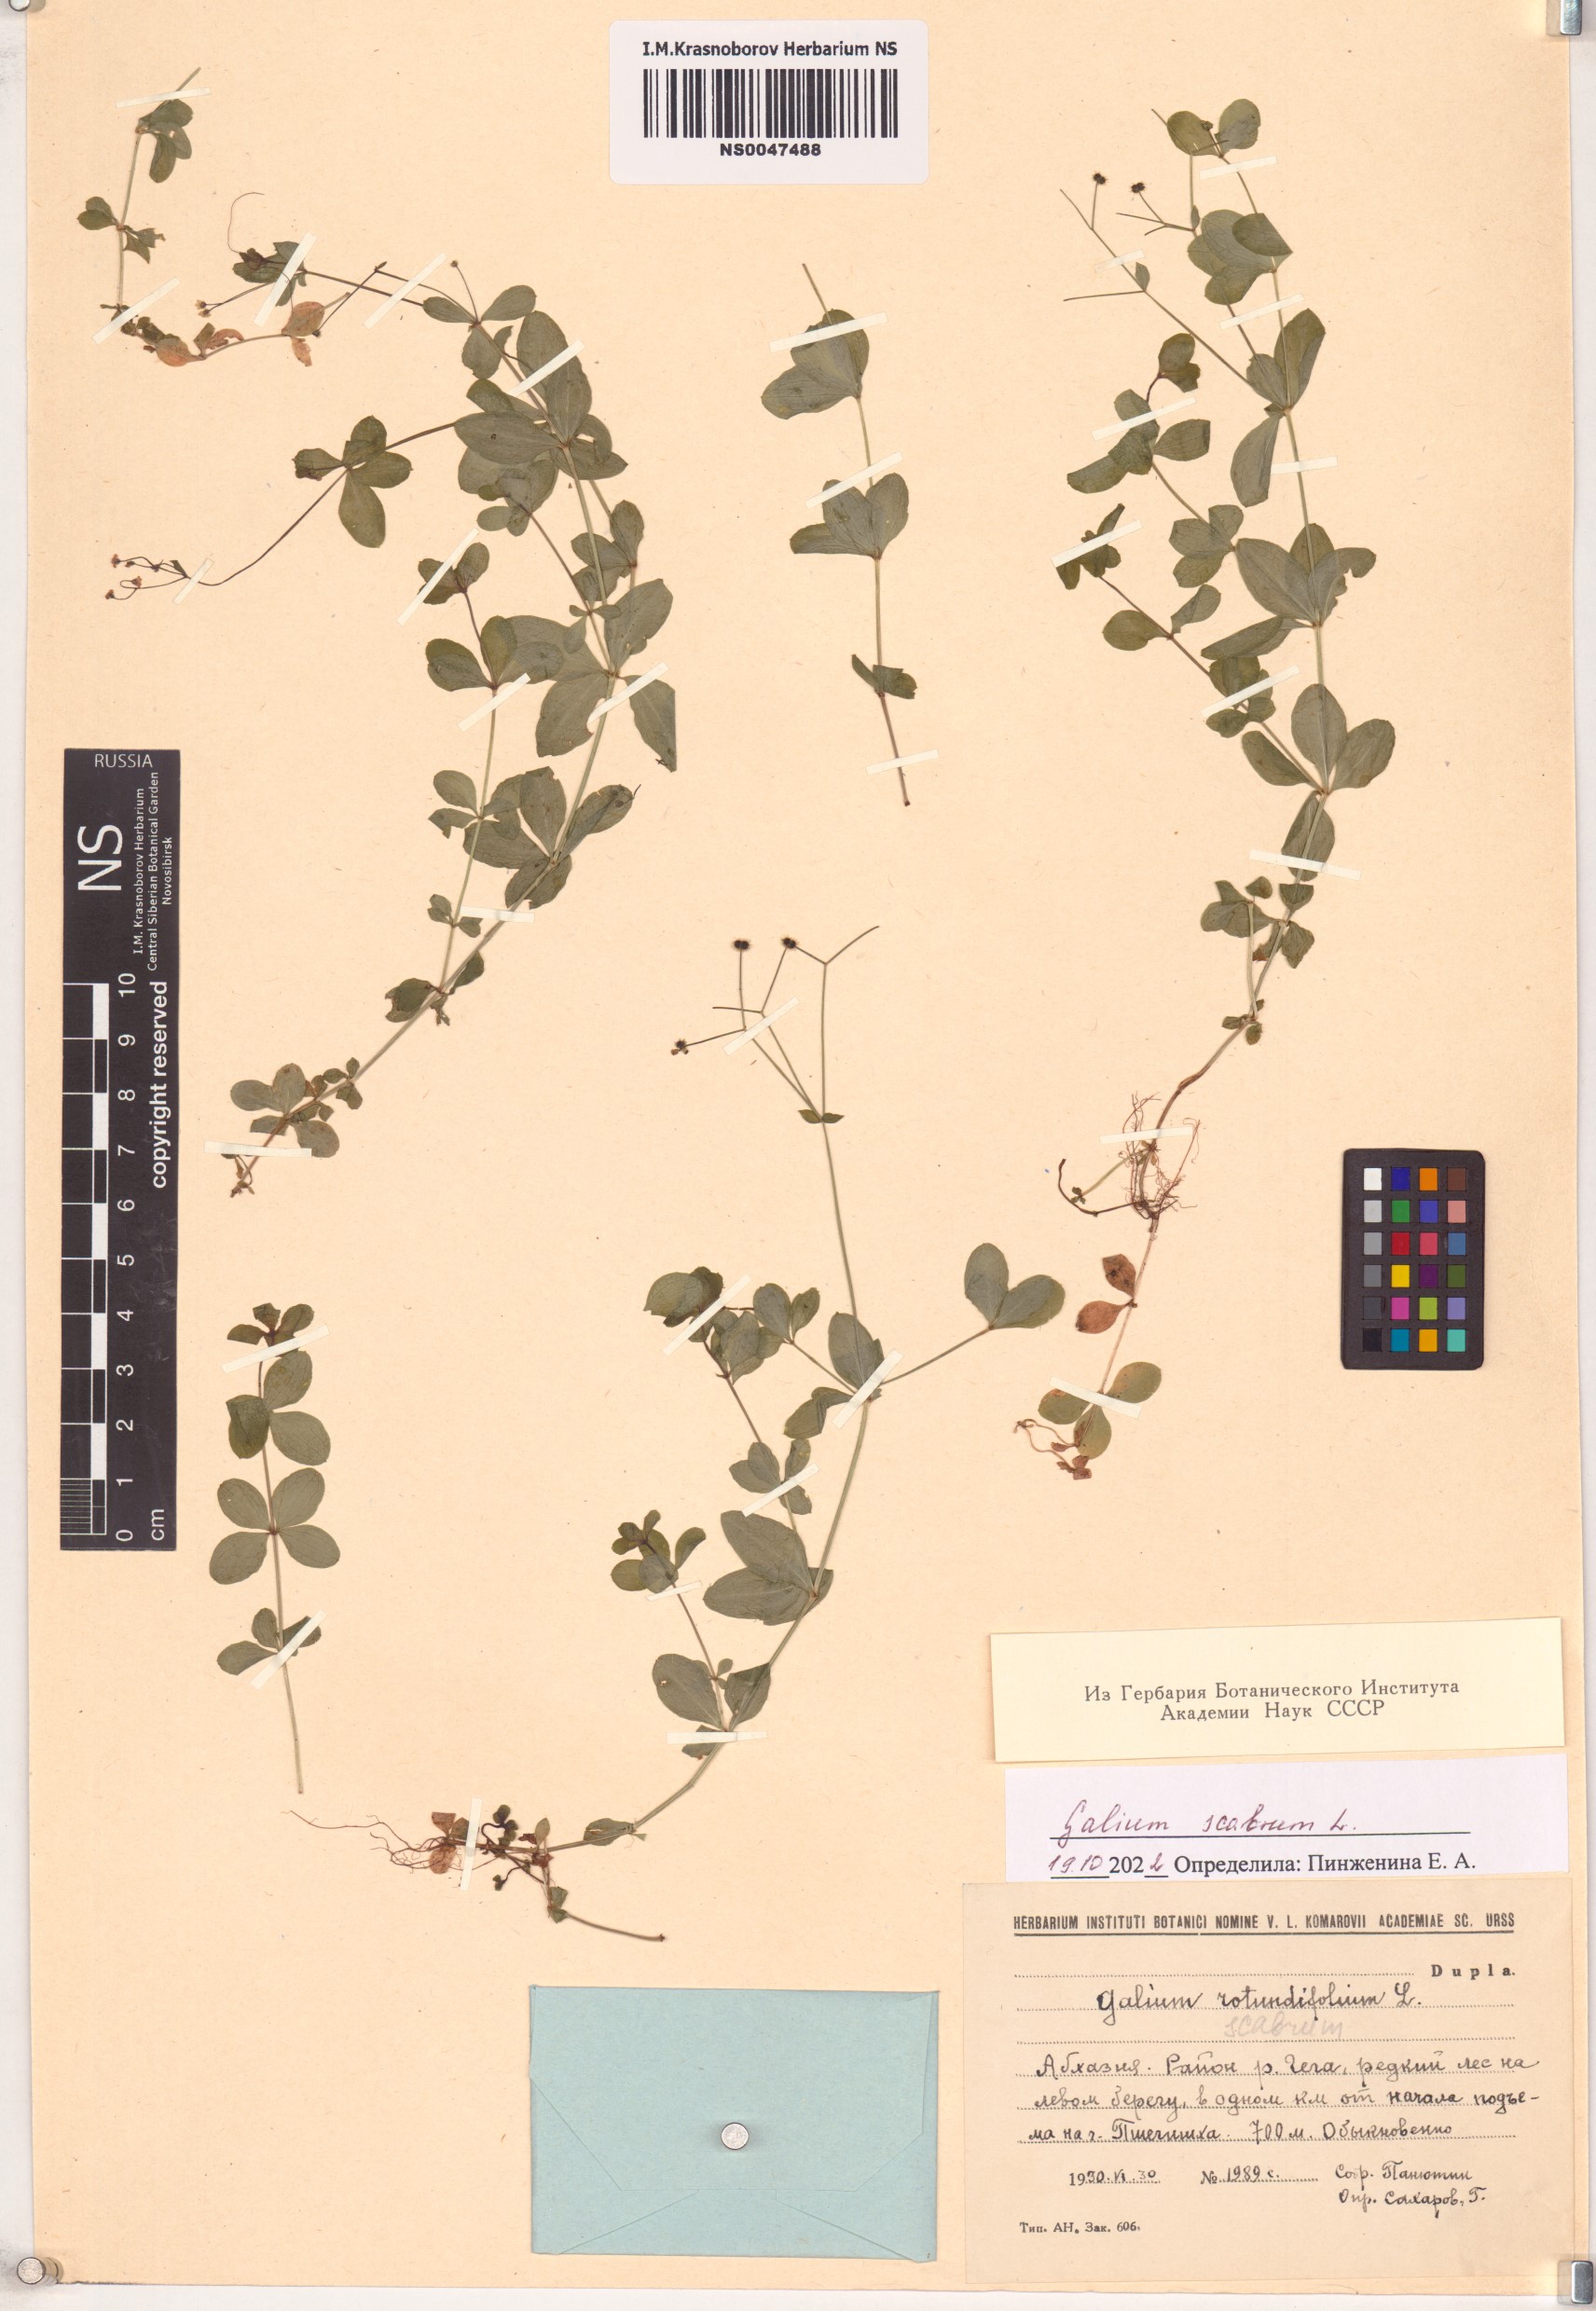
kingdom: Plantae
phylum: Tracheophyta
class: Magnoliopsida
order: Gentianales
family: Rubiaceae
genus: Galium
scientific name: Galium scabrum
